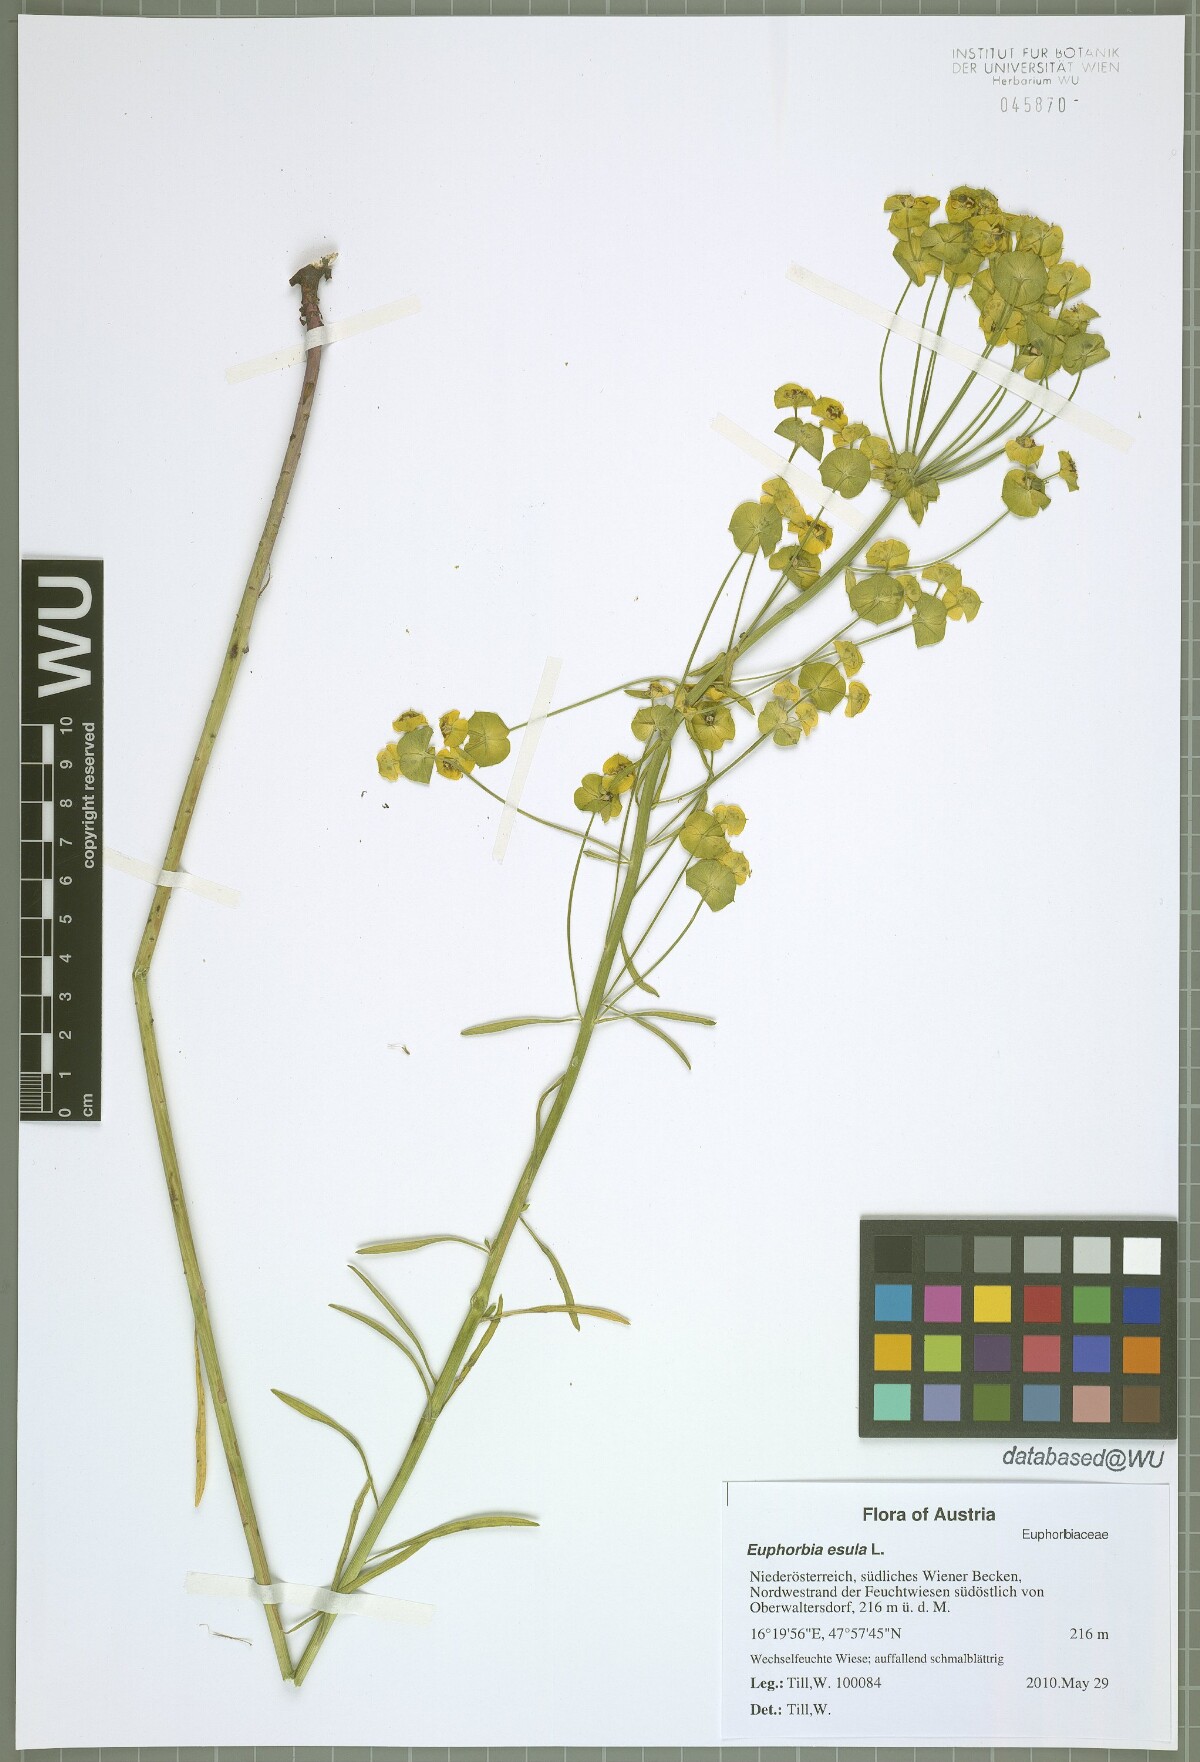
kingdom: Plantae
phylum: Tracheophyta
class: Magnoliopsida
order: Malpighiales
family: Euphorbiaceae
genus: Euphorbia
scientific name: Euphorbia esula
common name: Leafy spurge
